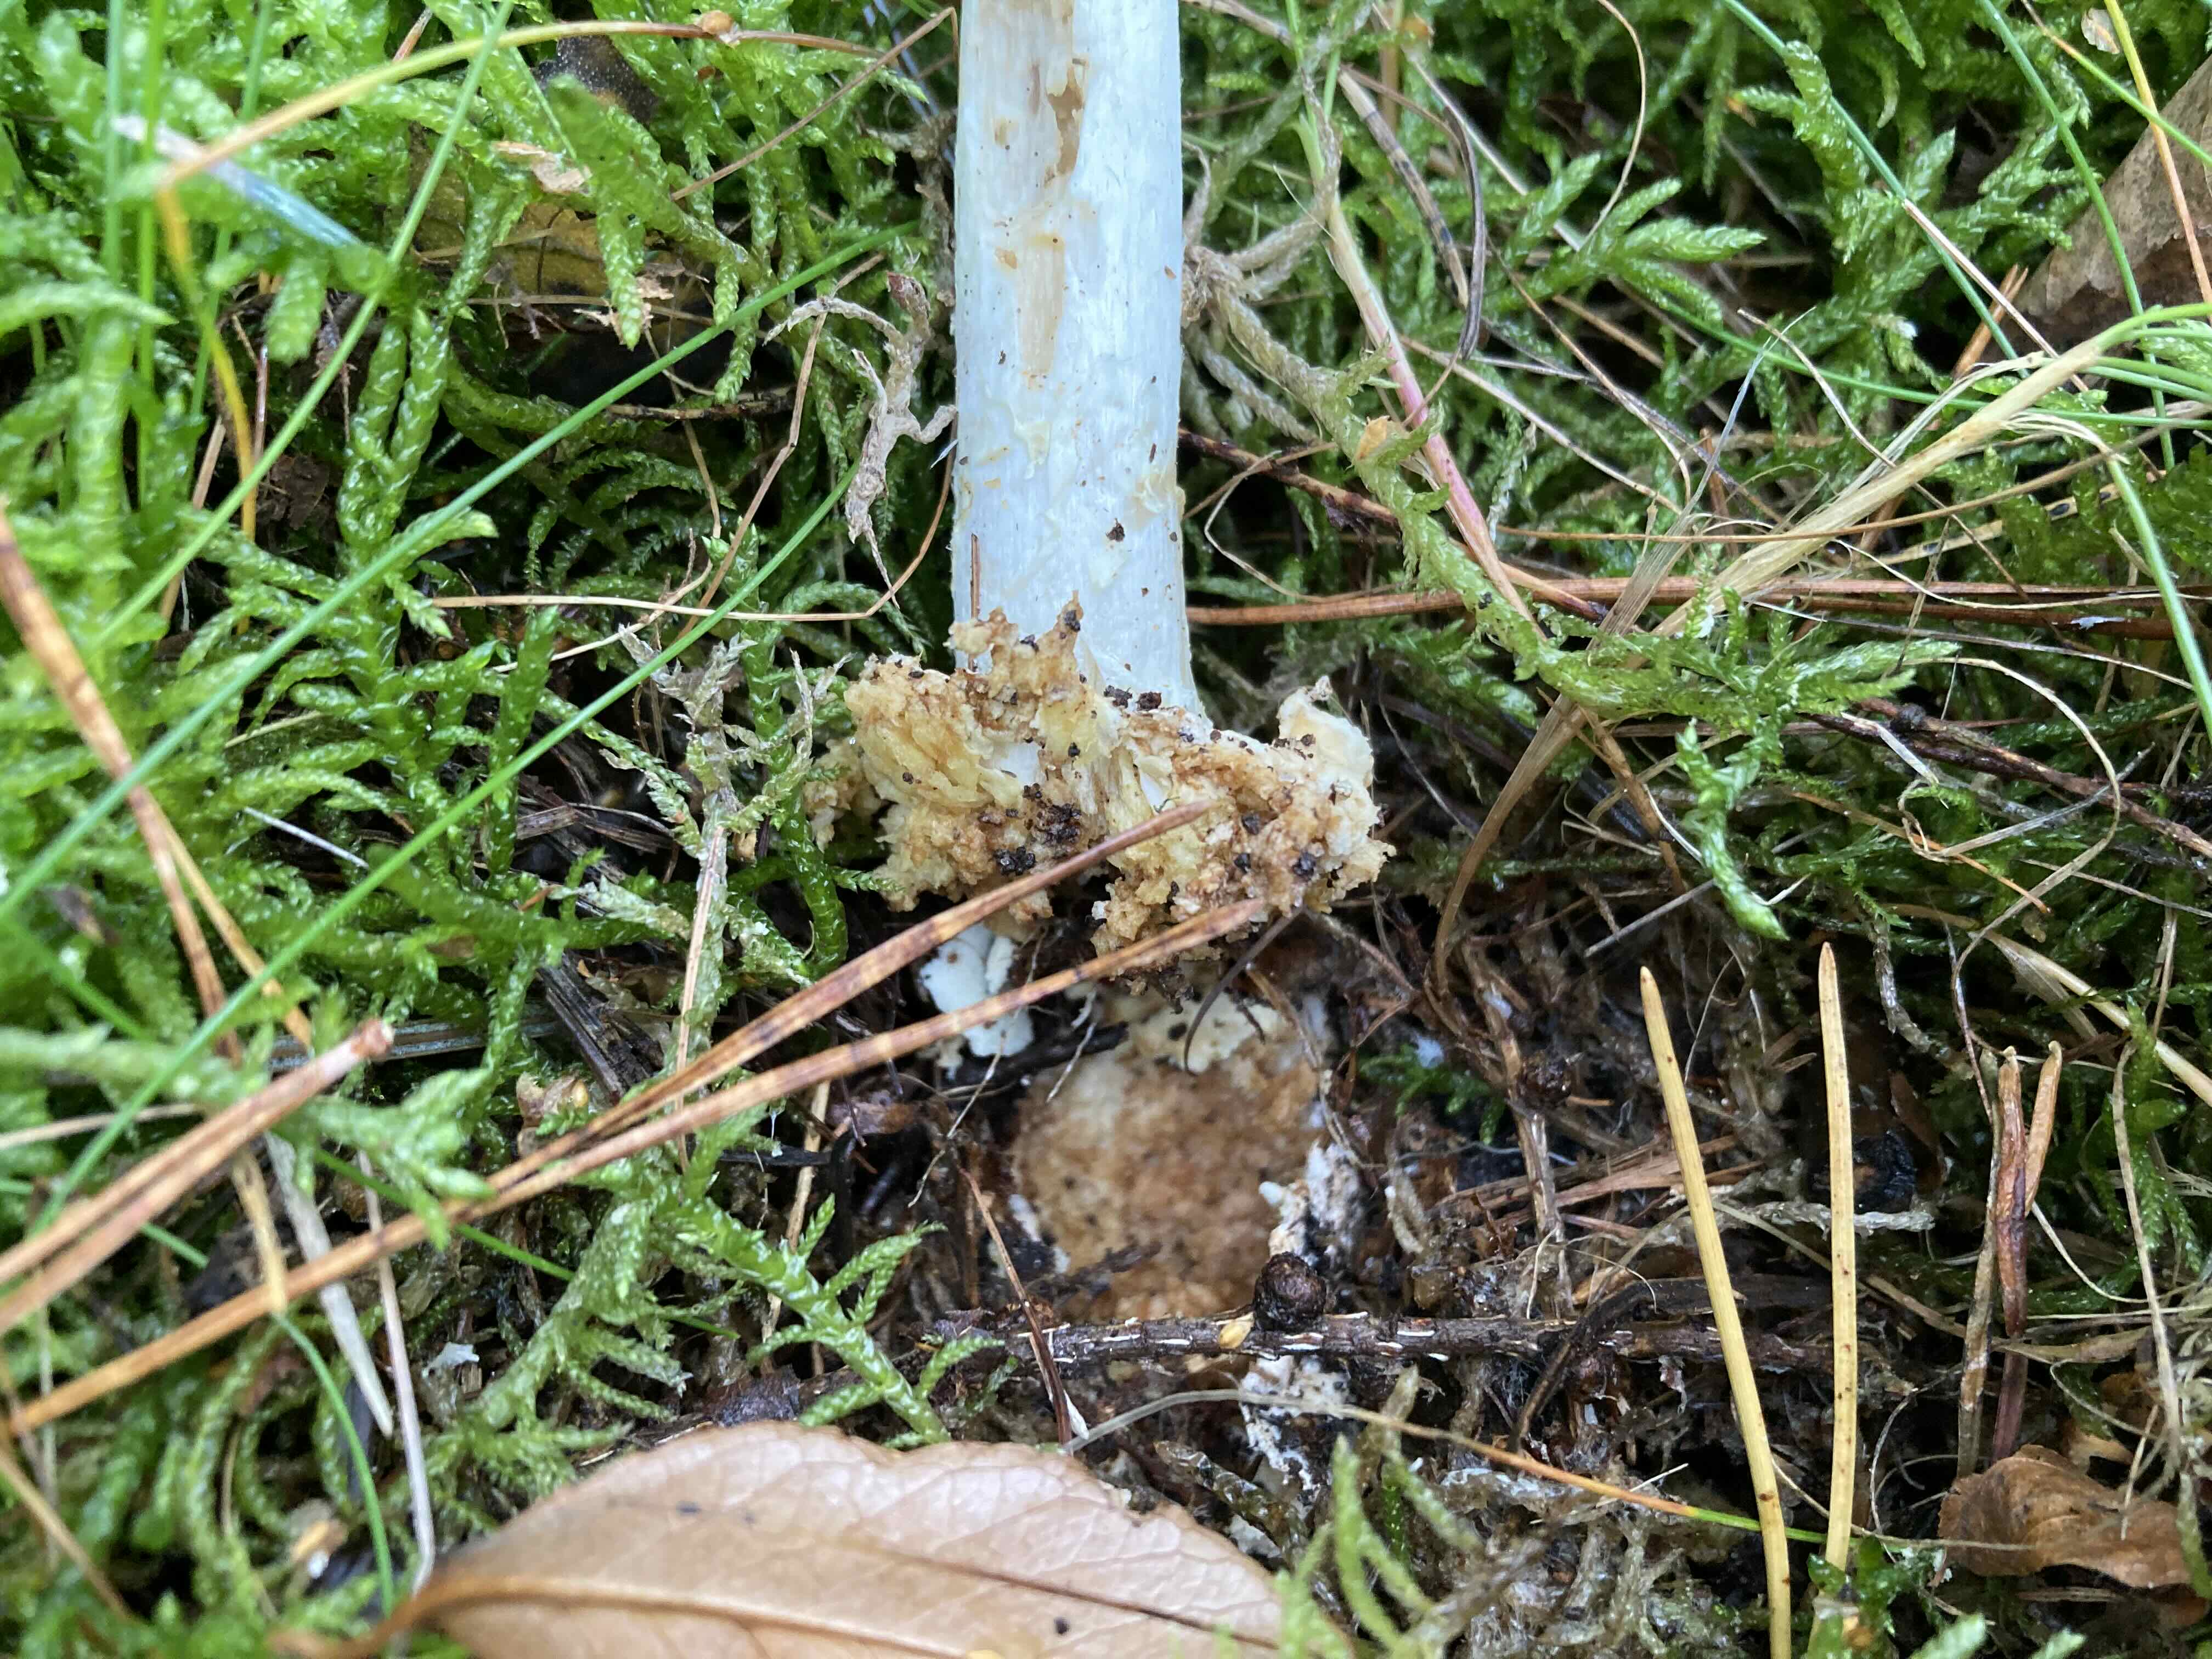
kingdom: Fungi
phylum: Basidiomycota
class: Agaricomycetes
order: Agaricales
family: Amanitaceae
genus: Amanita
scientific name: Amanita citrina
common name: kugleknoldet fluesvamp
